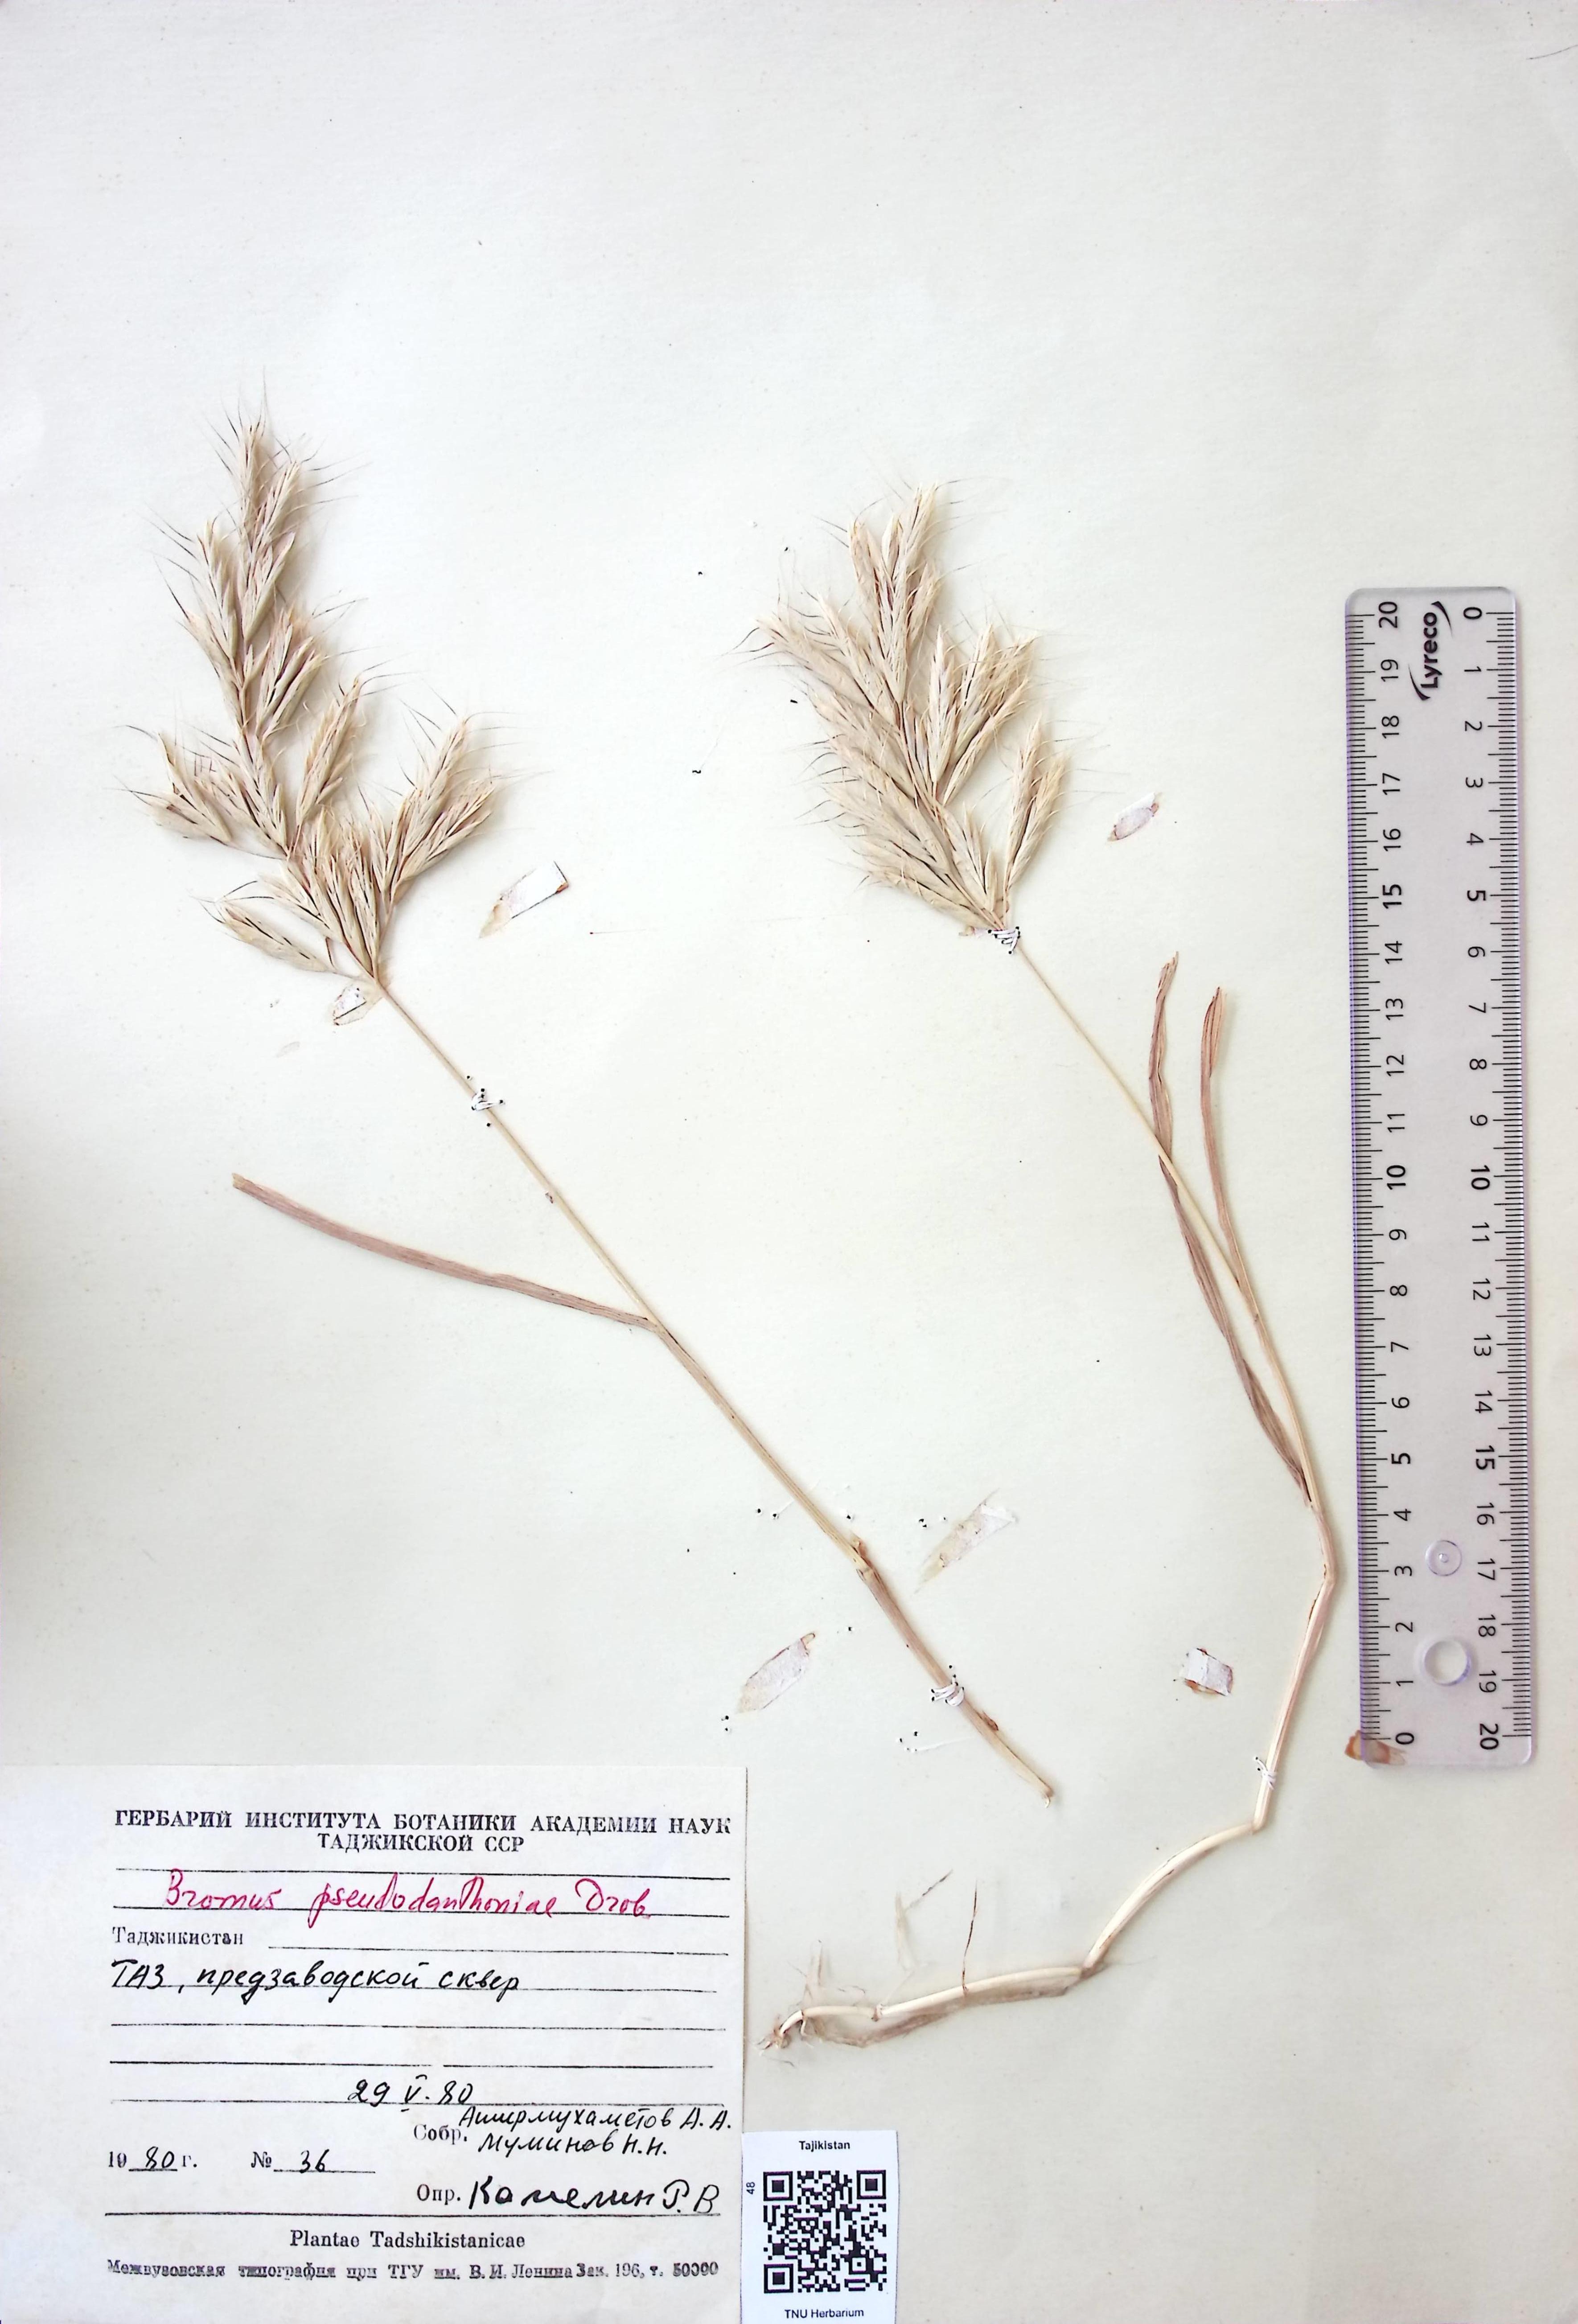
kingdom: Plantae
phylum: Tracheophyta
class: Liliopsida
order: Poales
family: Poaceae
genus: Bromus
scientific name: Bromus danthoniae
